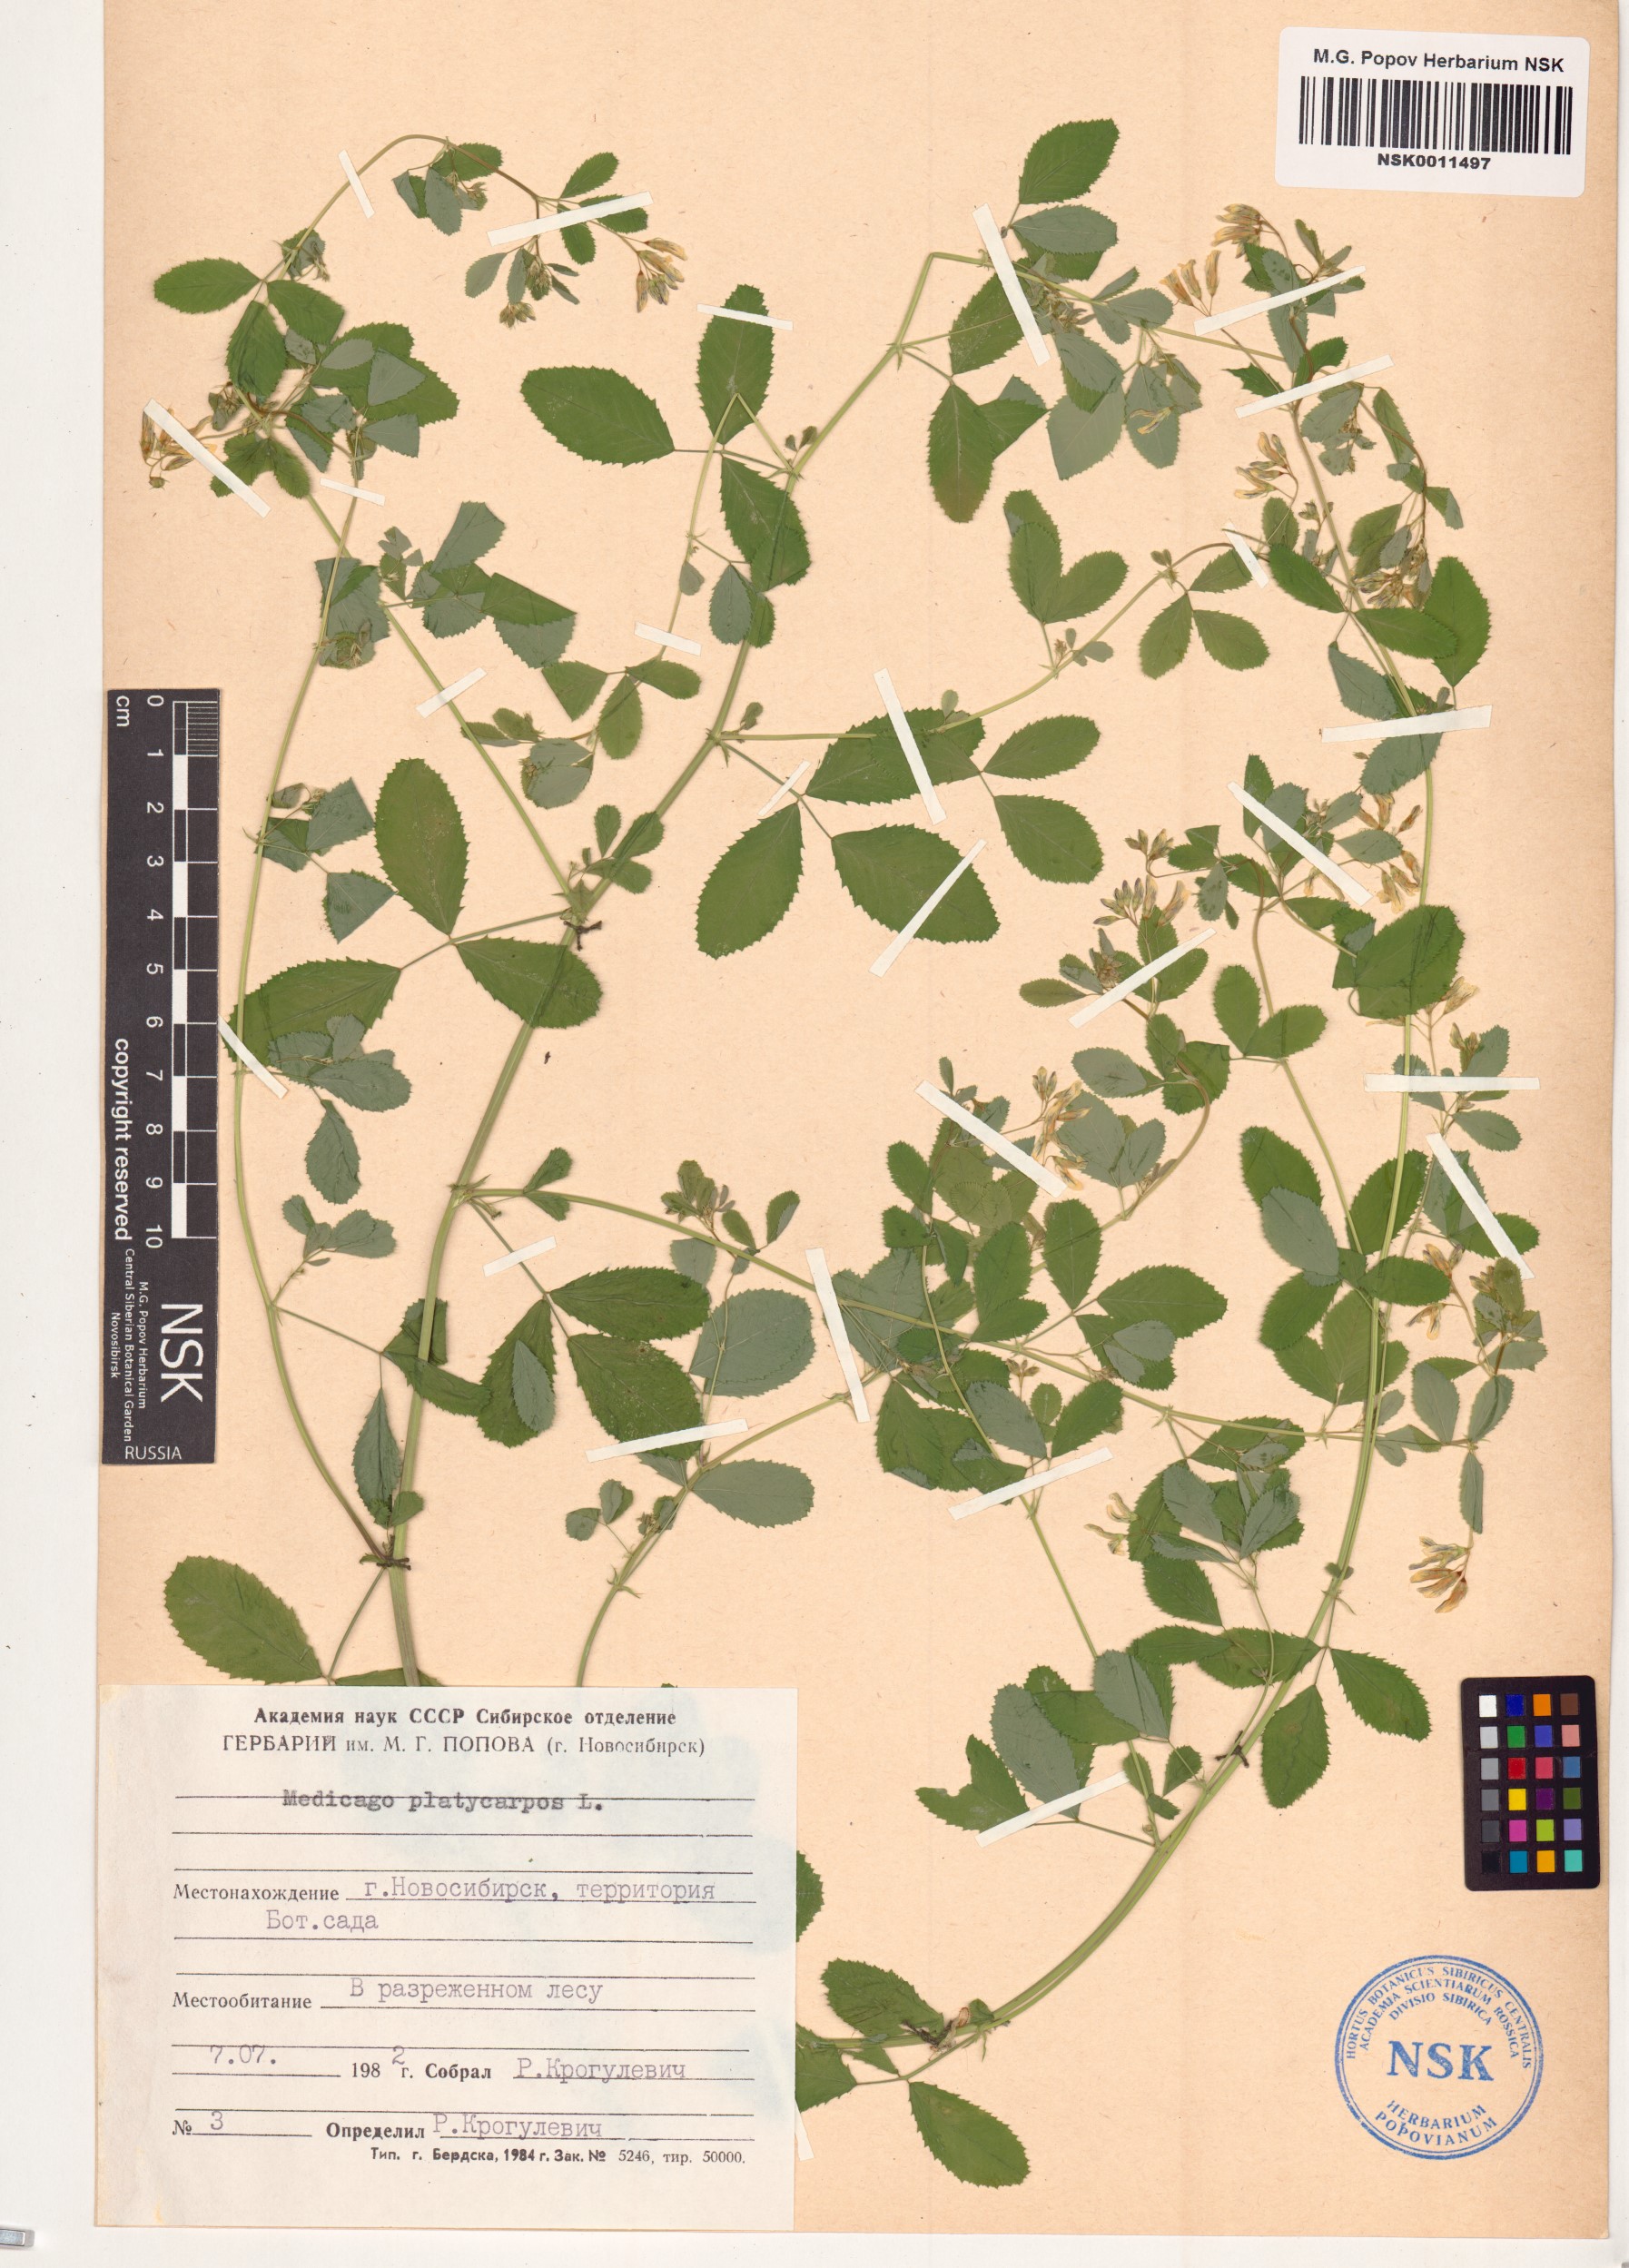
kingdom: Plantae
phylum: Tracheophyta
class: Magnoliopsida
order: Fabales
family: Fabaceae
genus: Medicago
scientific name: Medicago platycarpos
